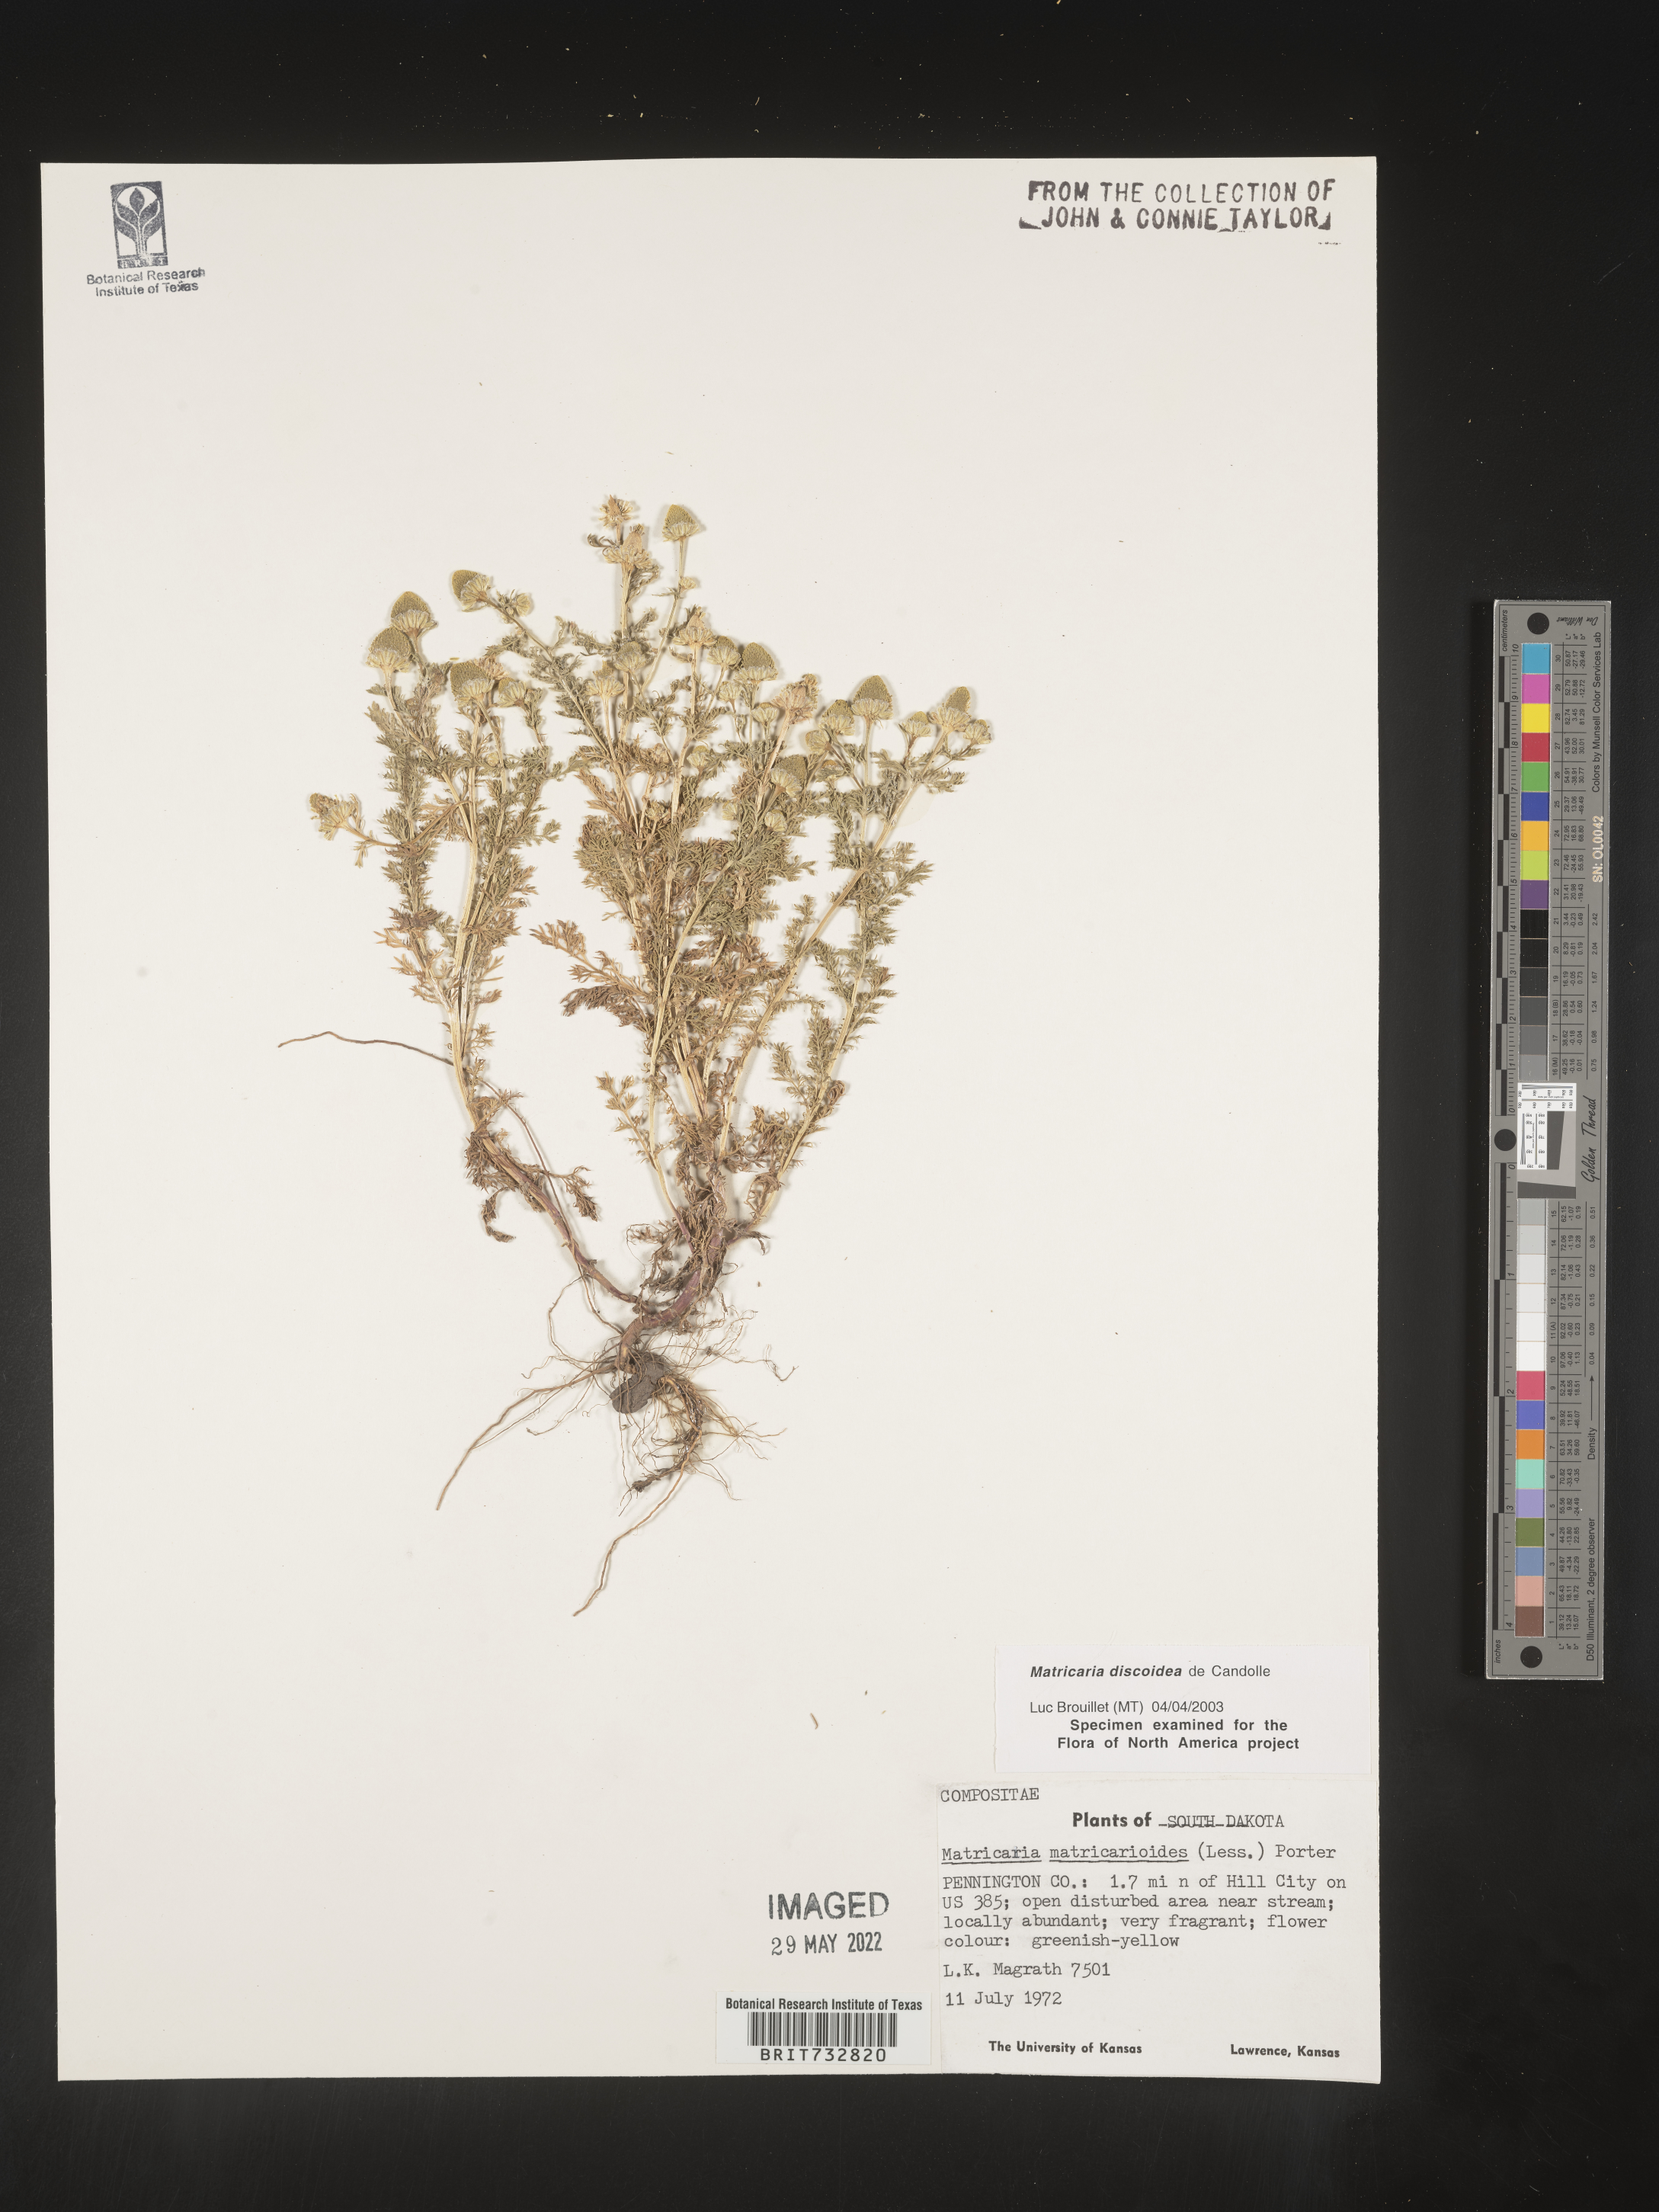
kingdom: Plantae
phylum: Tracheophyta
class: Magnoliopsida
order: Asterales
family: Asteraceae
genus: Matricaria
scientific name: Matricaria discoidea
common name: Disc mayweed
